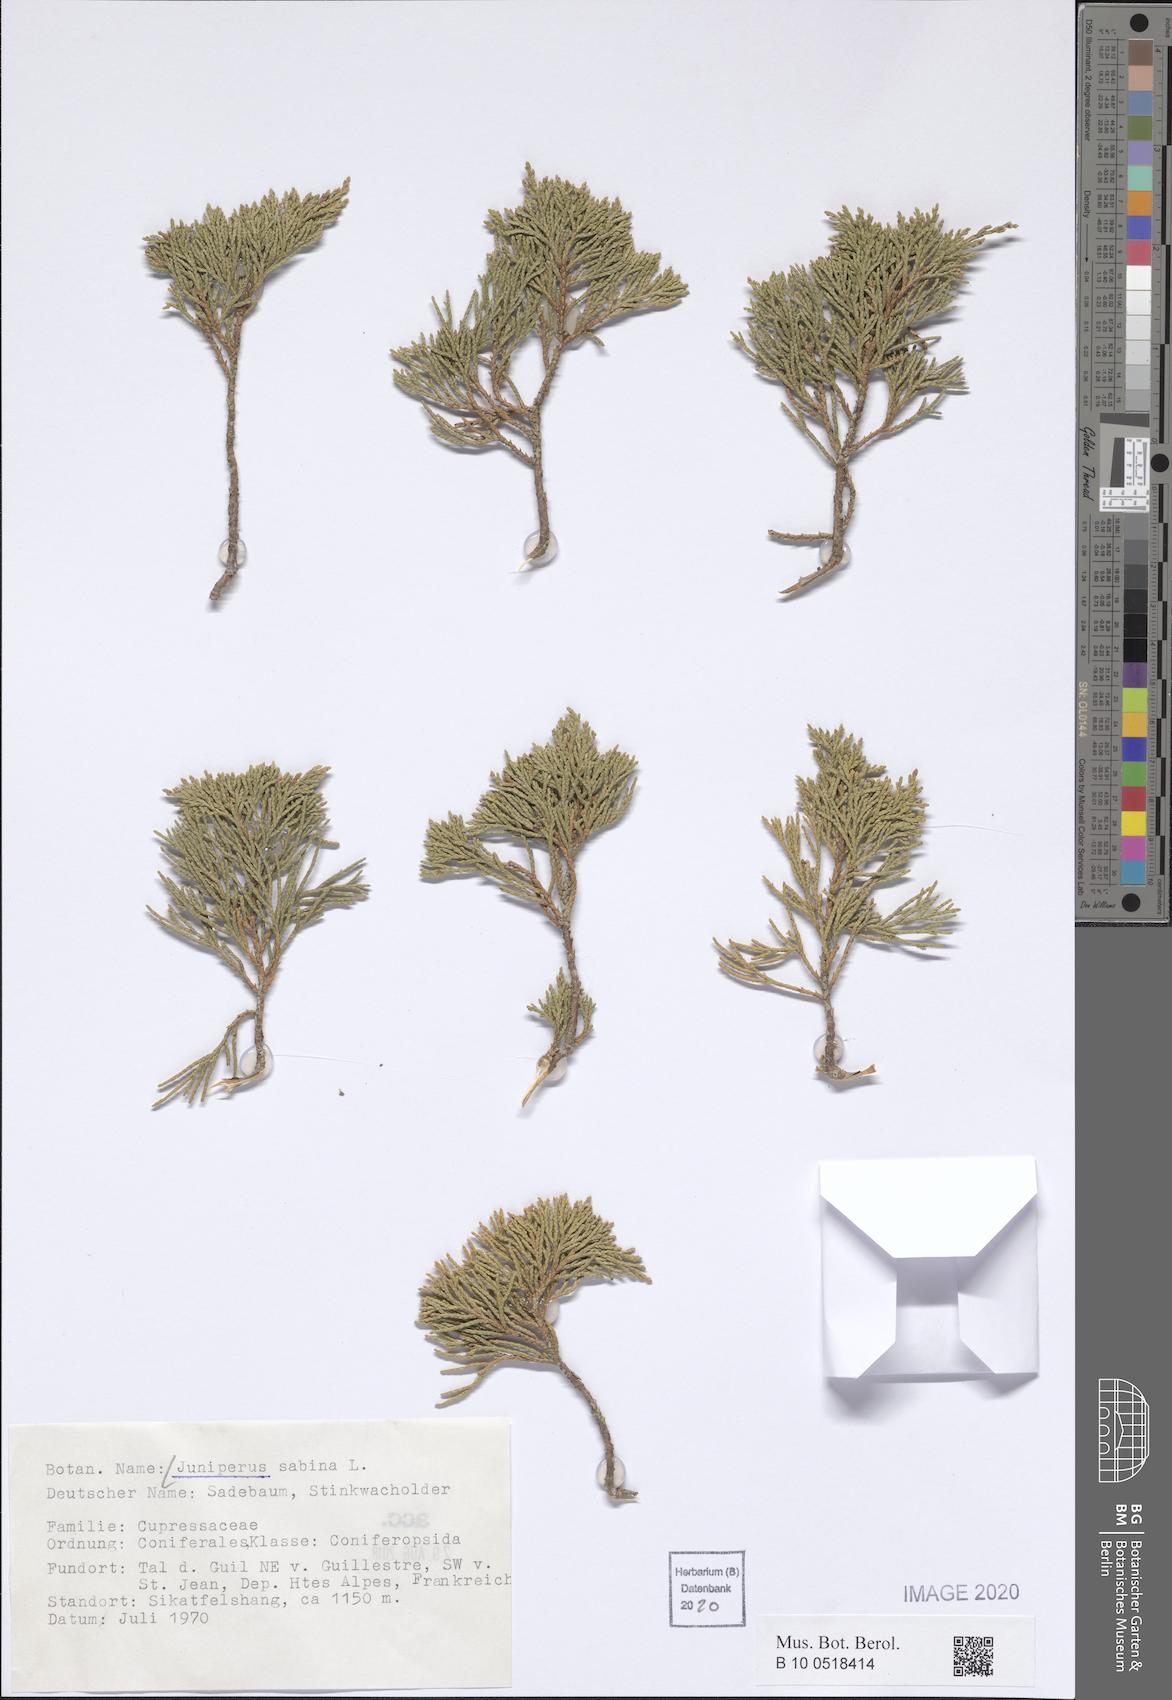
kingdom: Plantae
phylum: Tracheophyta
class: Pinopsida
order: Pinales
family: Cupressaceae
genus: Juniperus
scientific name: Juniperus sabina
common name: Savin
